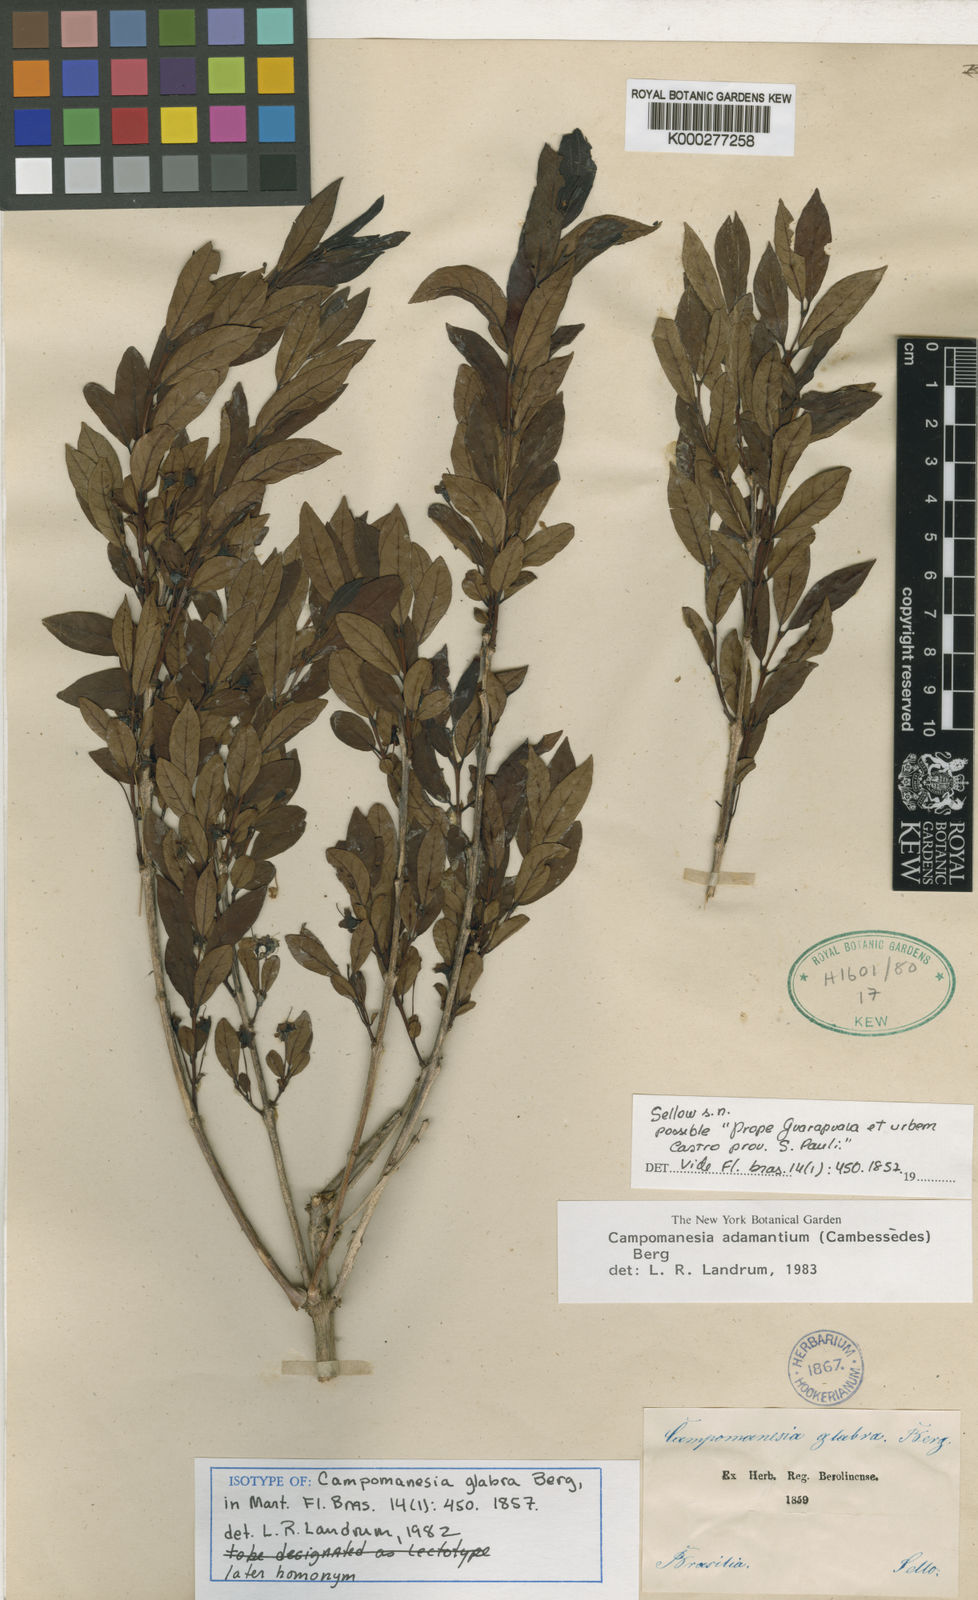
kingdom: Plantae
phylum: Tracheophyta
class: Magnoliopsida
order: Myrtales
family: Myrtaceae
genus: Campomanesia
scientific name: Campomanesia adamantium
